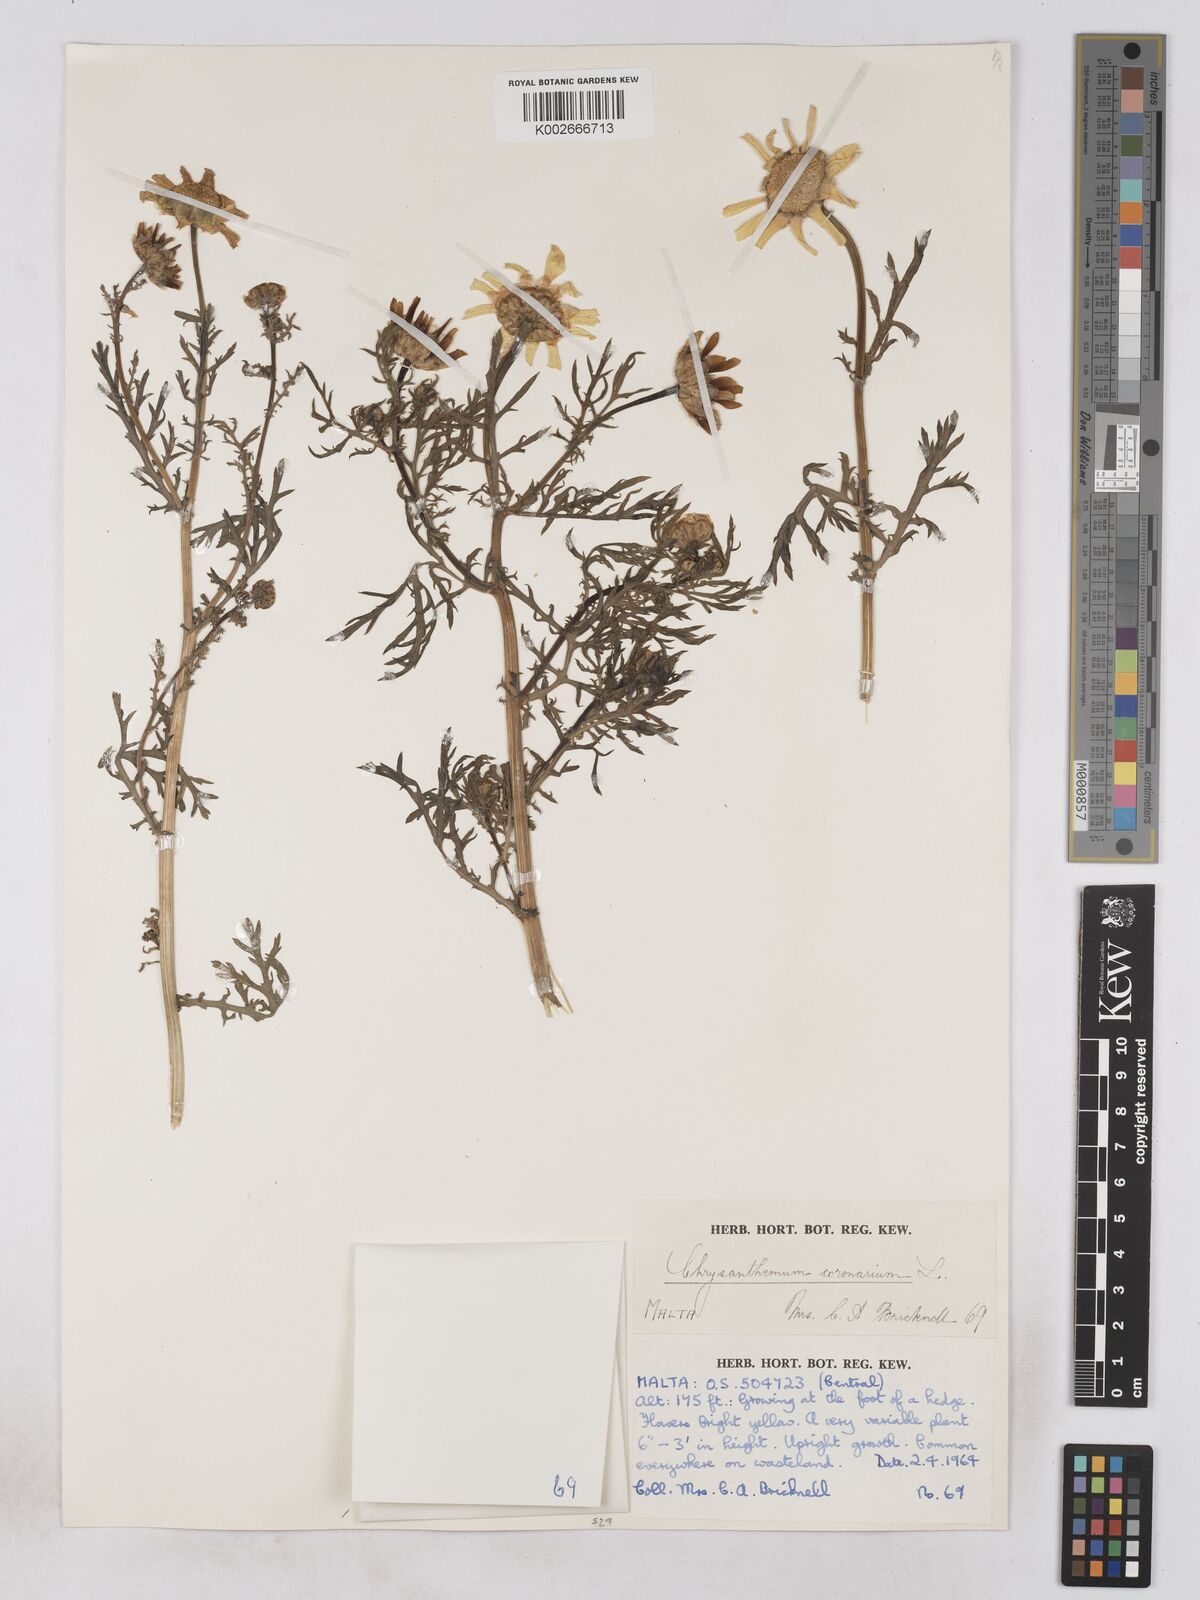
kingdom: Plantae
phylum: Tracheophyta
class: Magnoliopsida
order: Asterales
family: Asteraceae
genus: Glebionis
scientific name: Glebionis coronaria
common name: Crowndaisy
